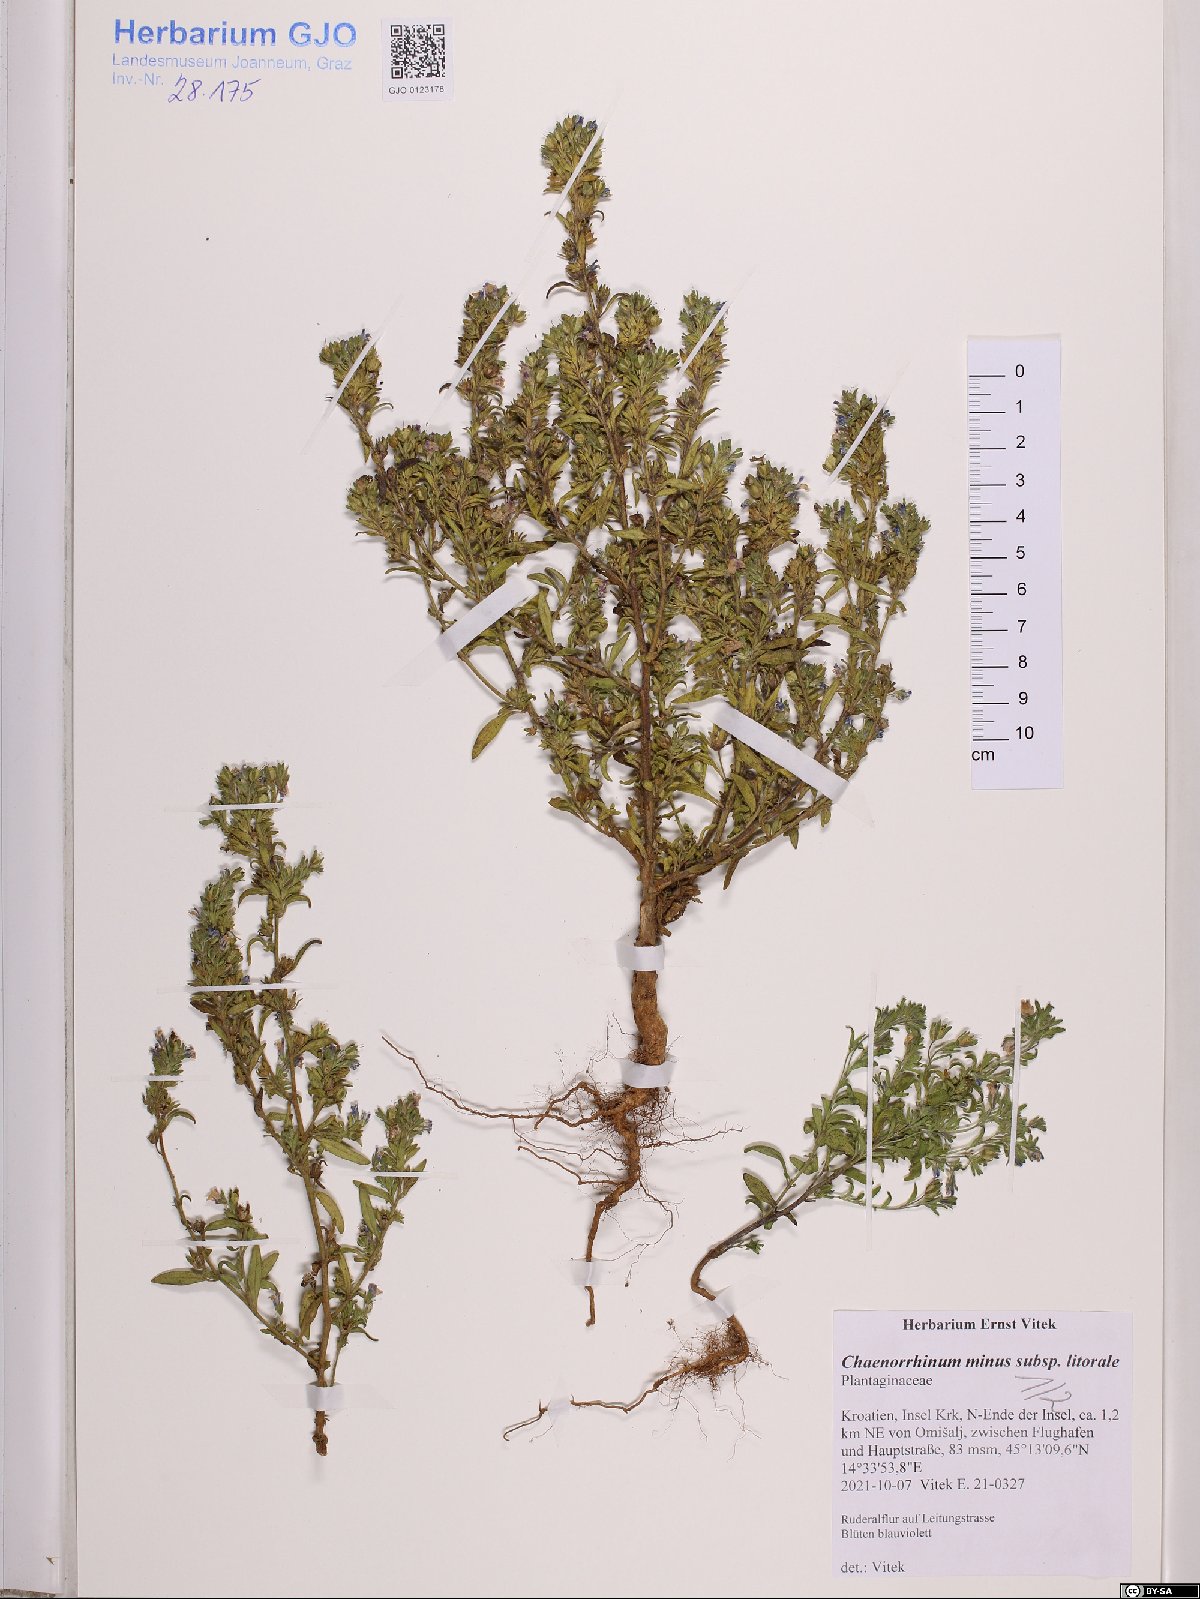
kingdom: Plantae
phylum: Tracheophyta
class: Magnoliopsida
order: Lamiales
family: Plantaginaceae
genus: Chaenorhinum
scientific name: Chaenorhinum litorale
